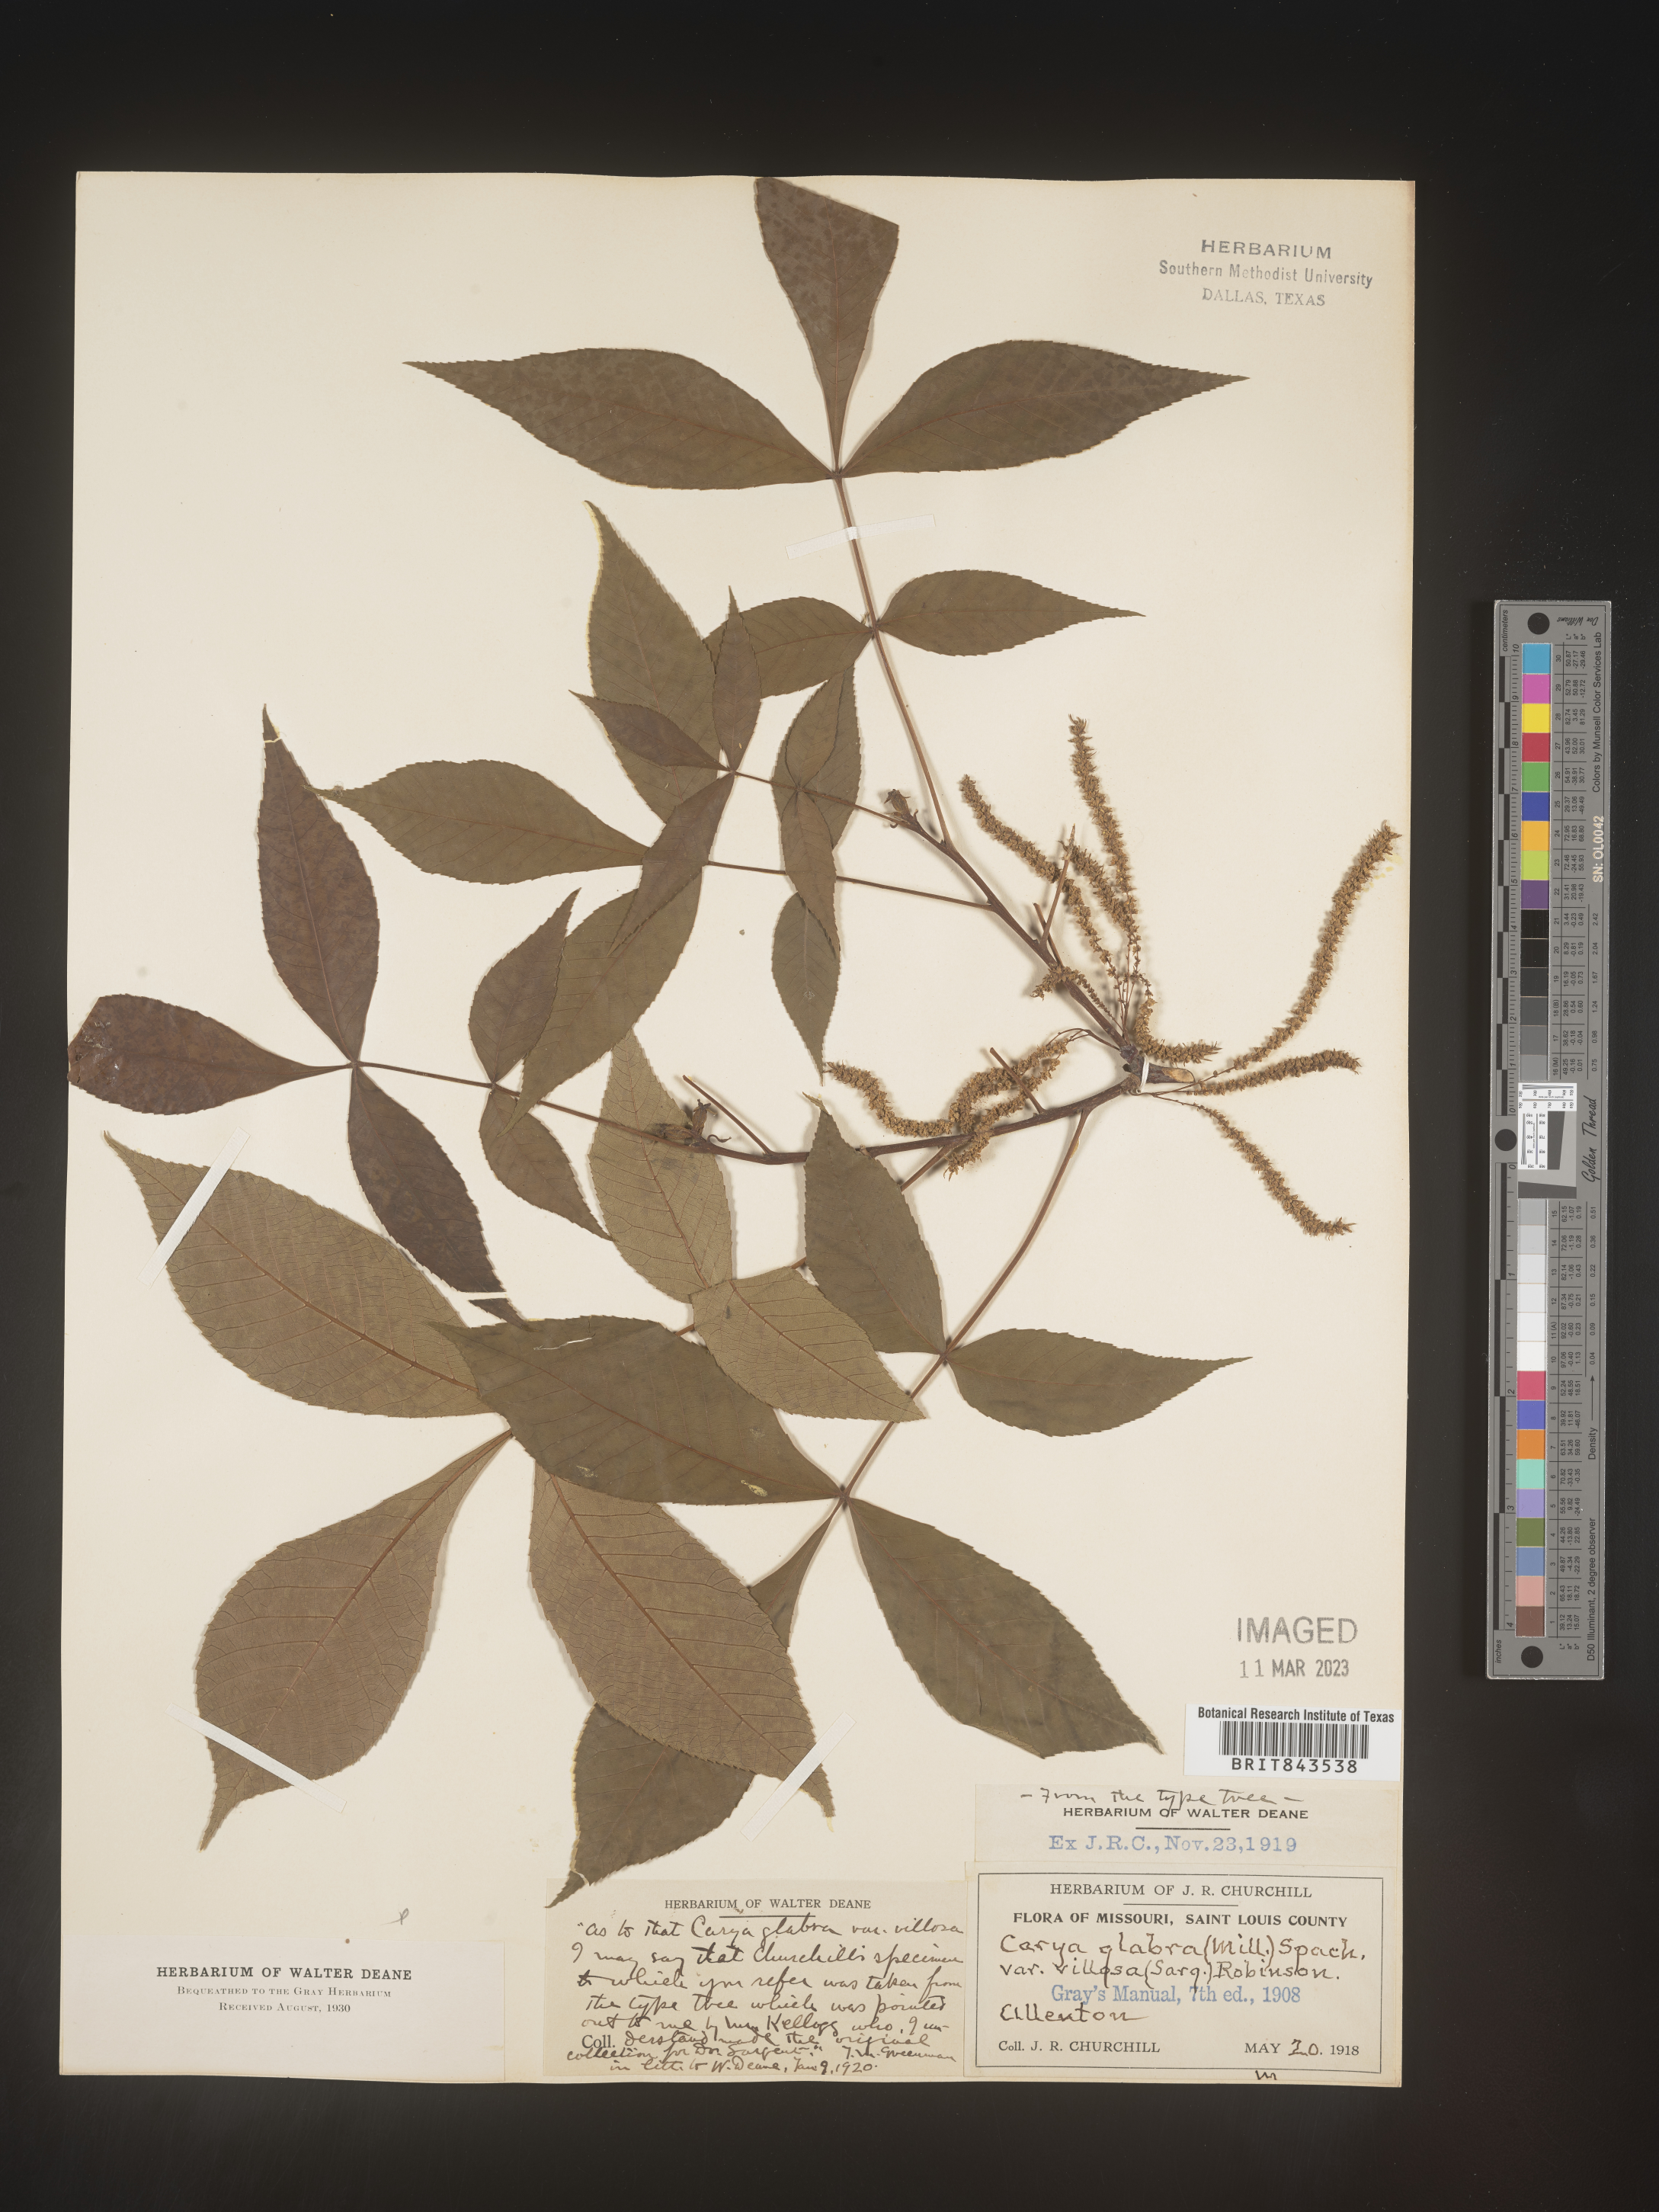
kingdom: Plantae
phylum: Tracheophyta
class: Magnoliopsida
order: Fagales
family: Juglandaceae
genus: Carya
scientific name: Carya glabra
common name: Pignut hickory
